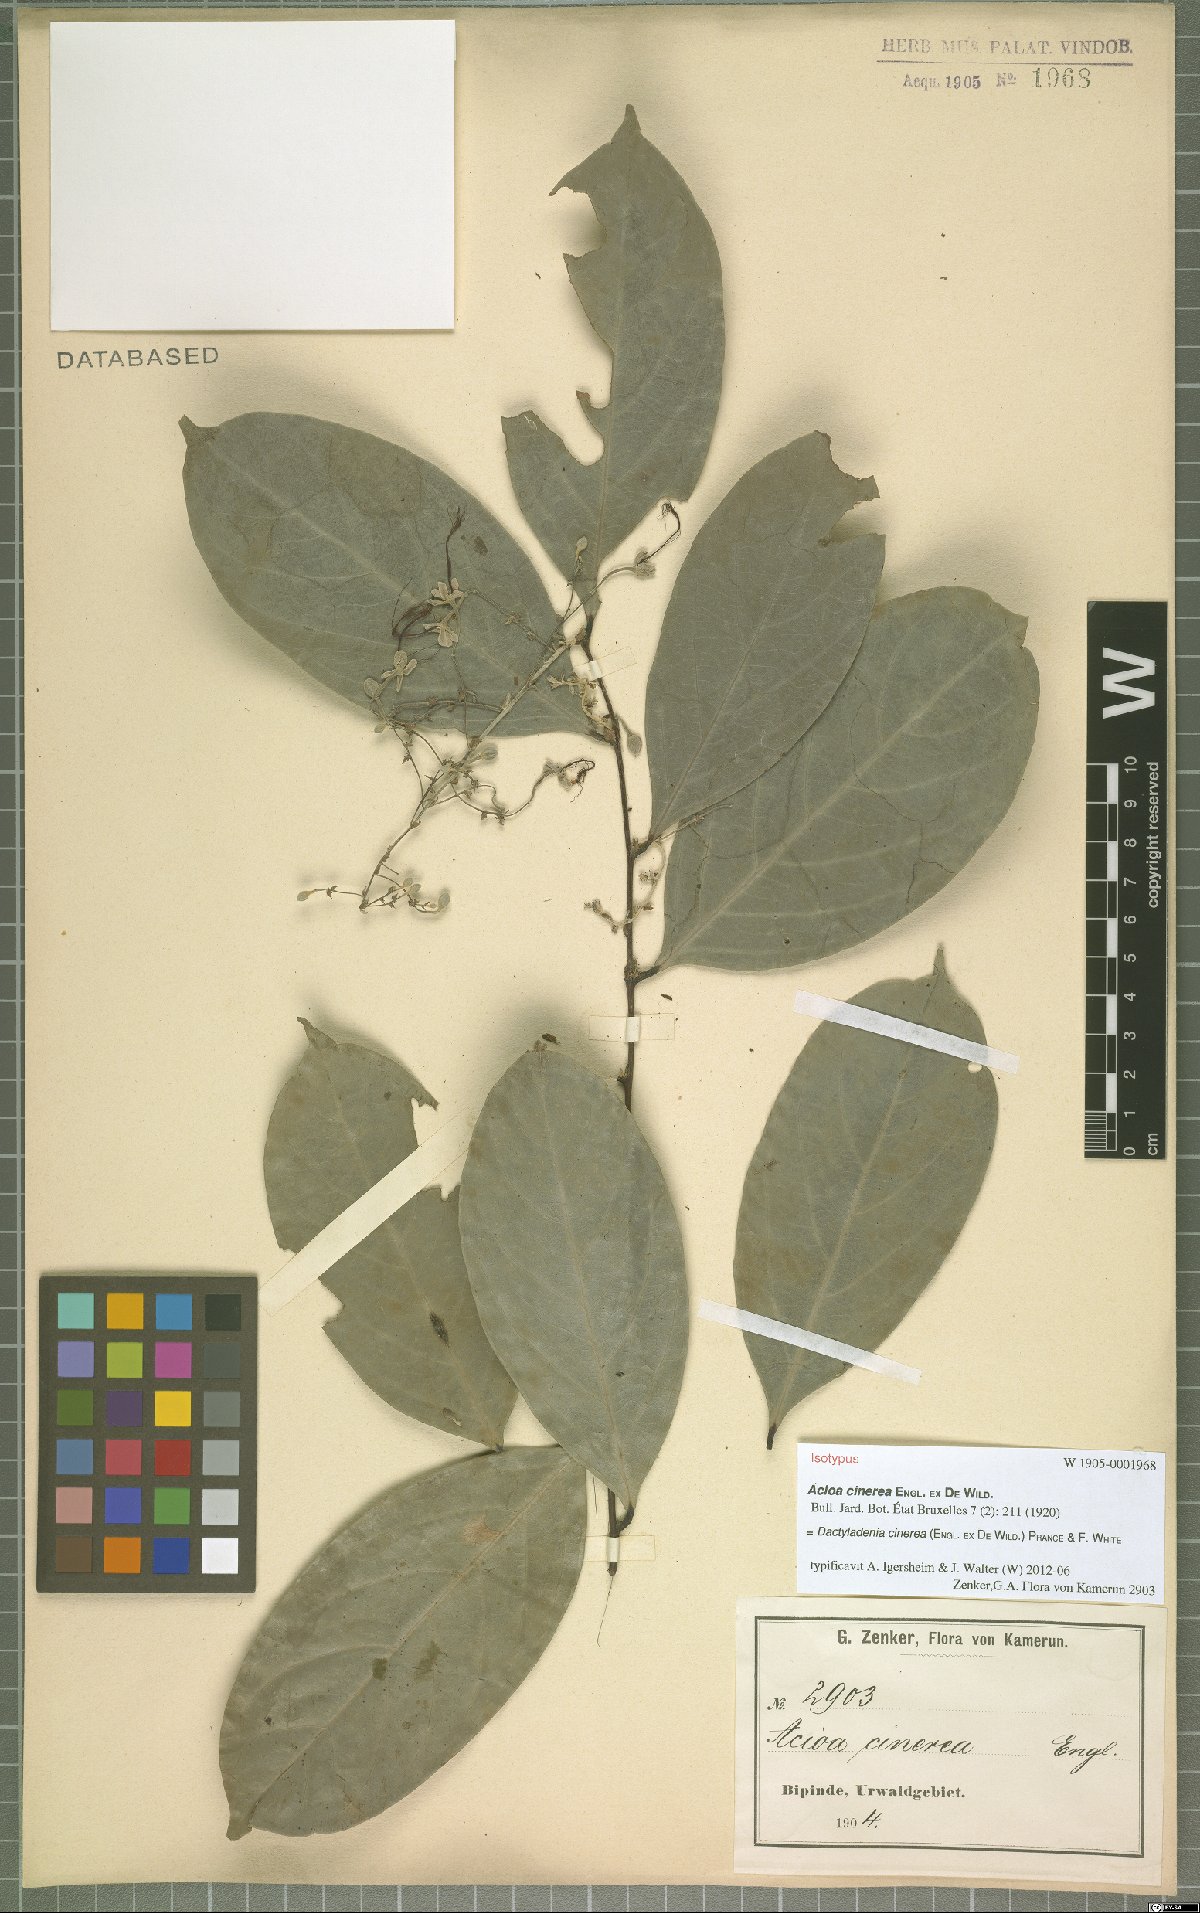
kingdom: Plantae
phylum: Tracheophyta
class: Magnoliopsida
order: Malpighiales
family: Chrysobalanaceae
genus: Dactyladenia
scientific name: Dactyladenia cinerea
